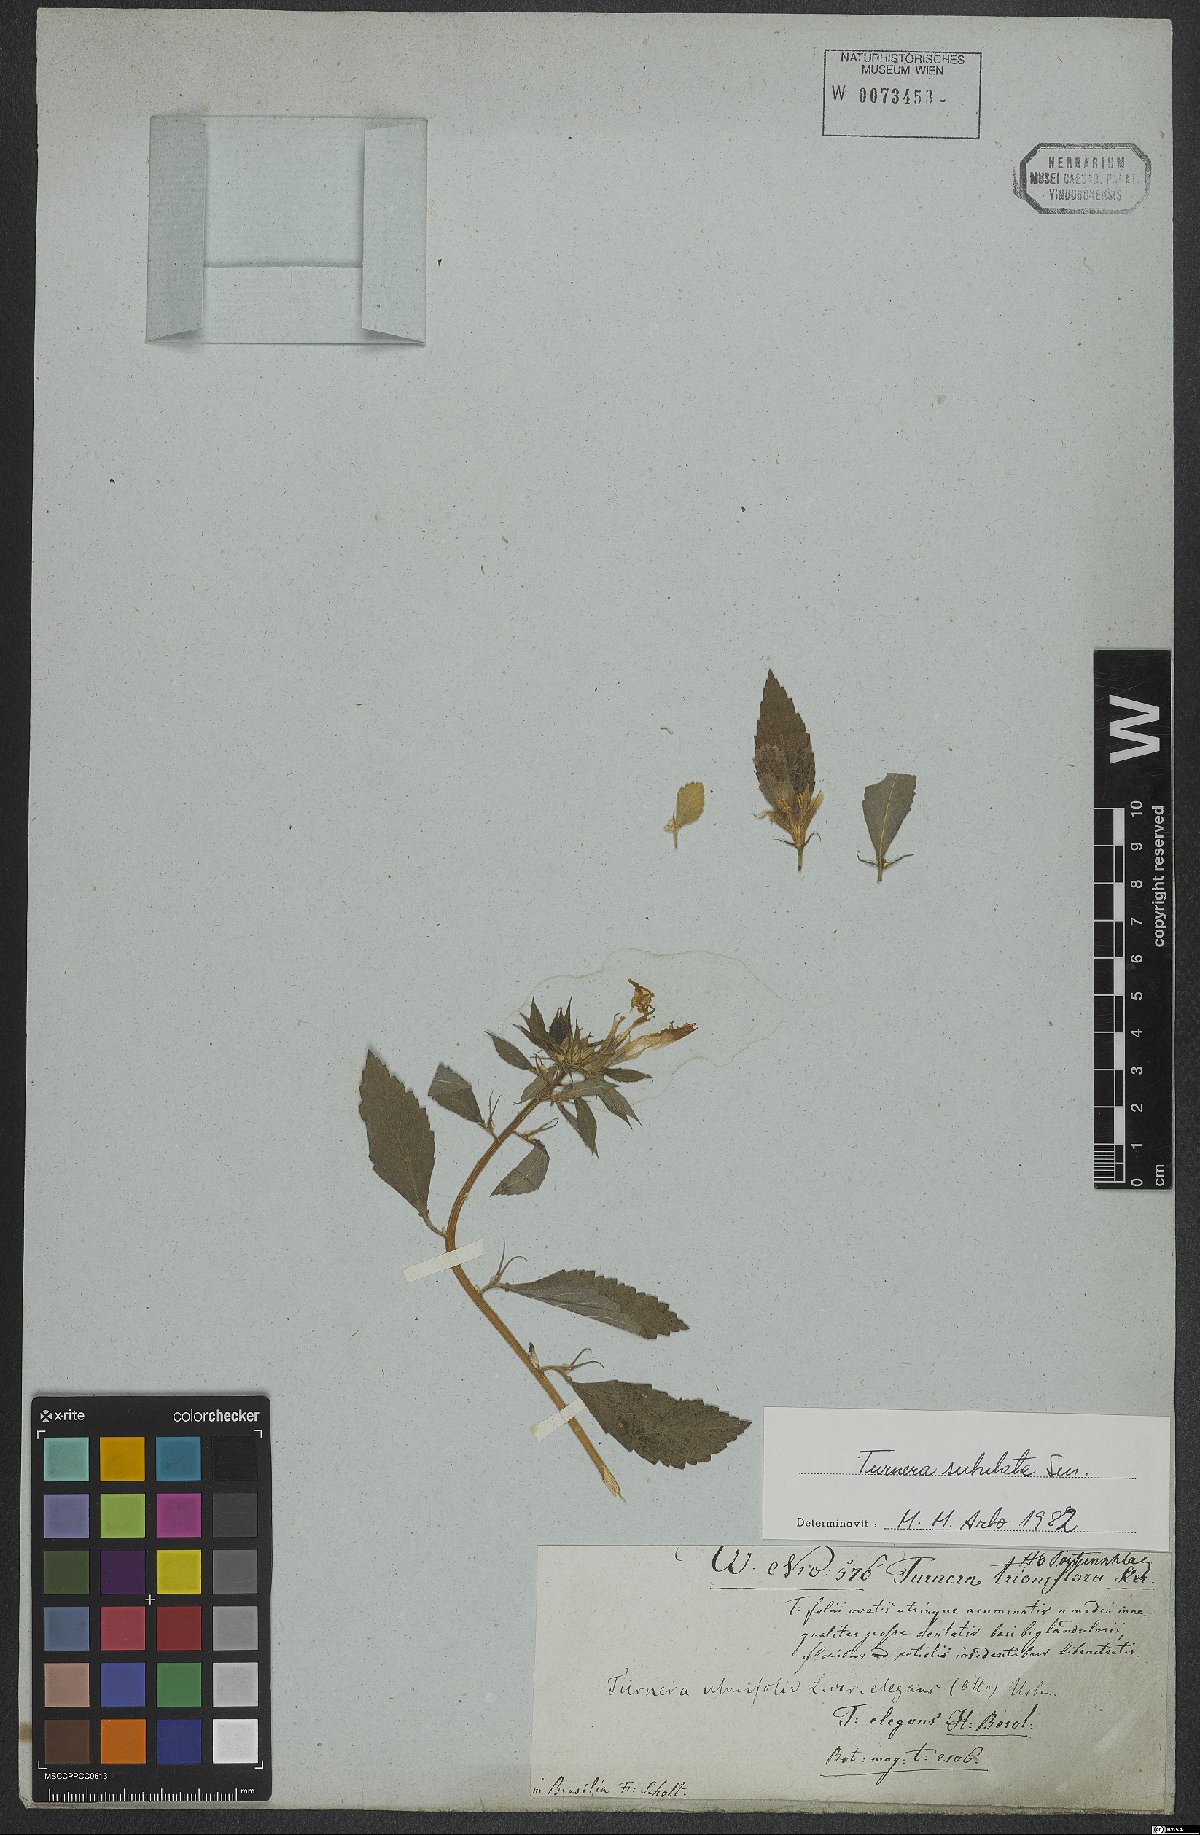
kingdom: Plantae
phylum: Tracheophyta
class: Magnoliopsida
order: Malpighiales
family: Turneraceae
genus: Turnera
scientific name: Turnera subulata
